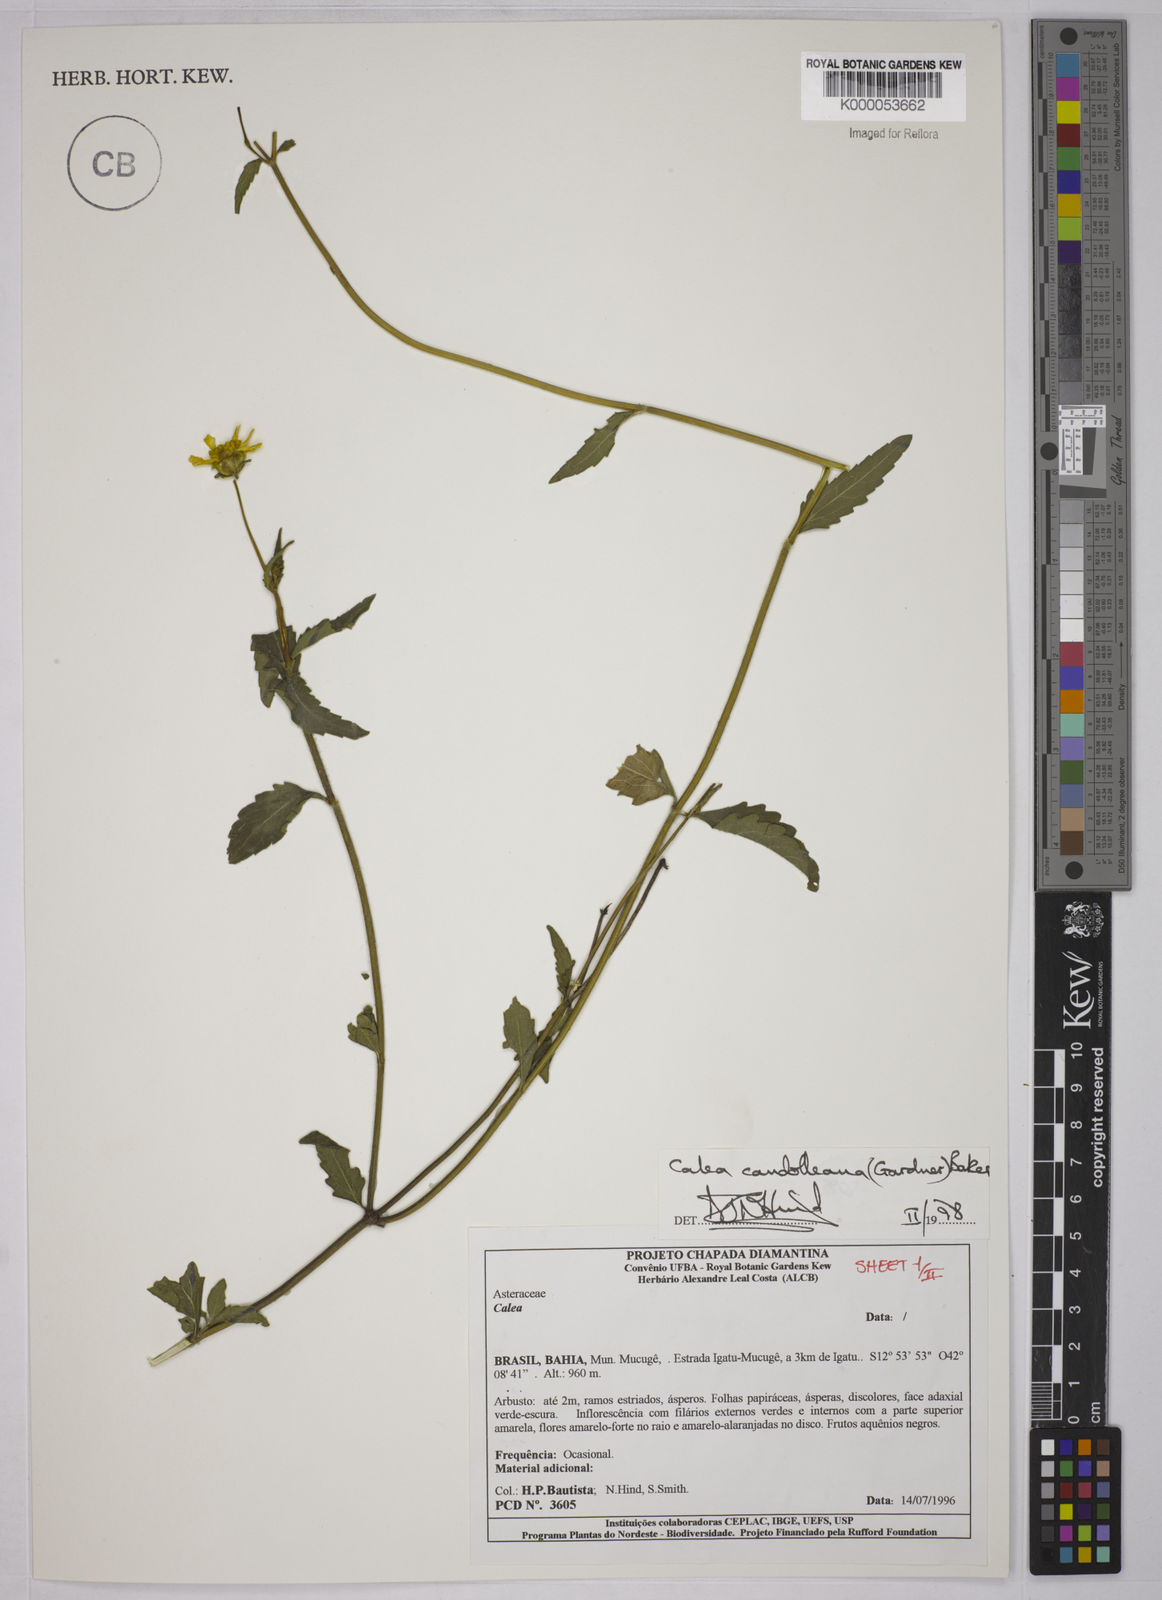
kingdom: Plantae
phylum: Tracheophyta
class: Magnoliopsida
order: Asterales
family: Asteraceae
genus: Calea
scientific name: Calea candolleana
